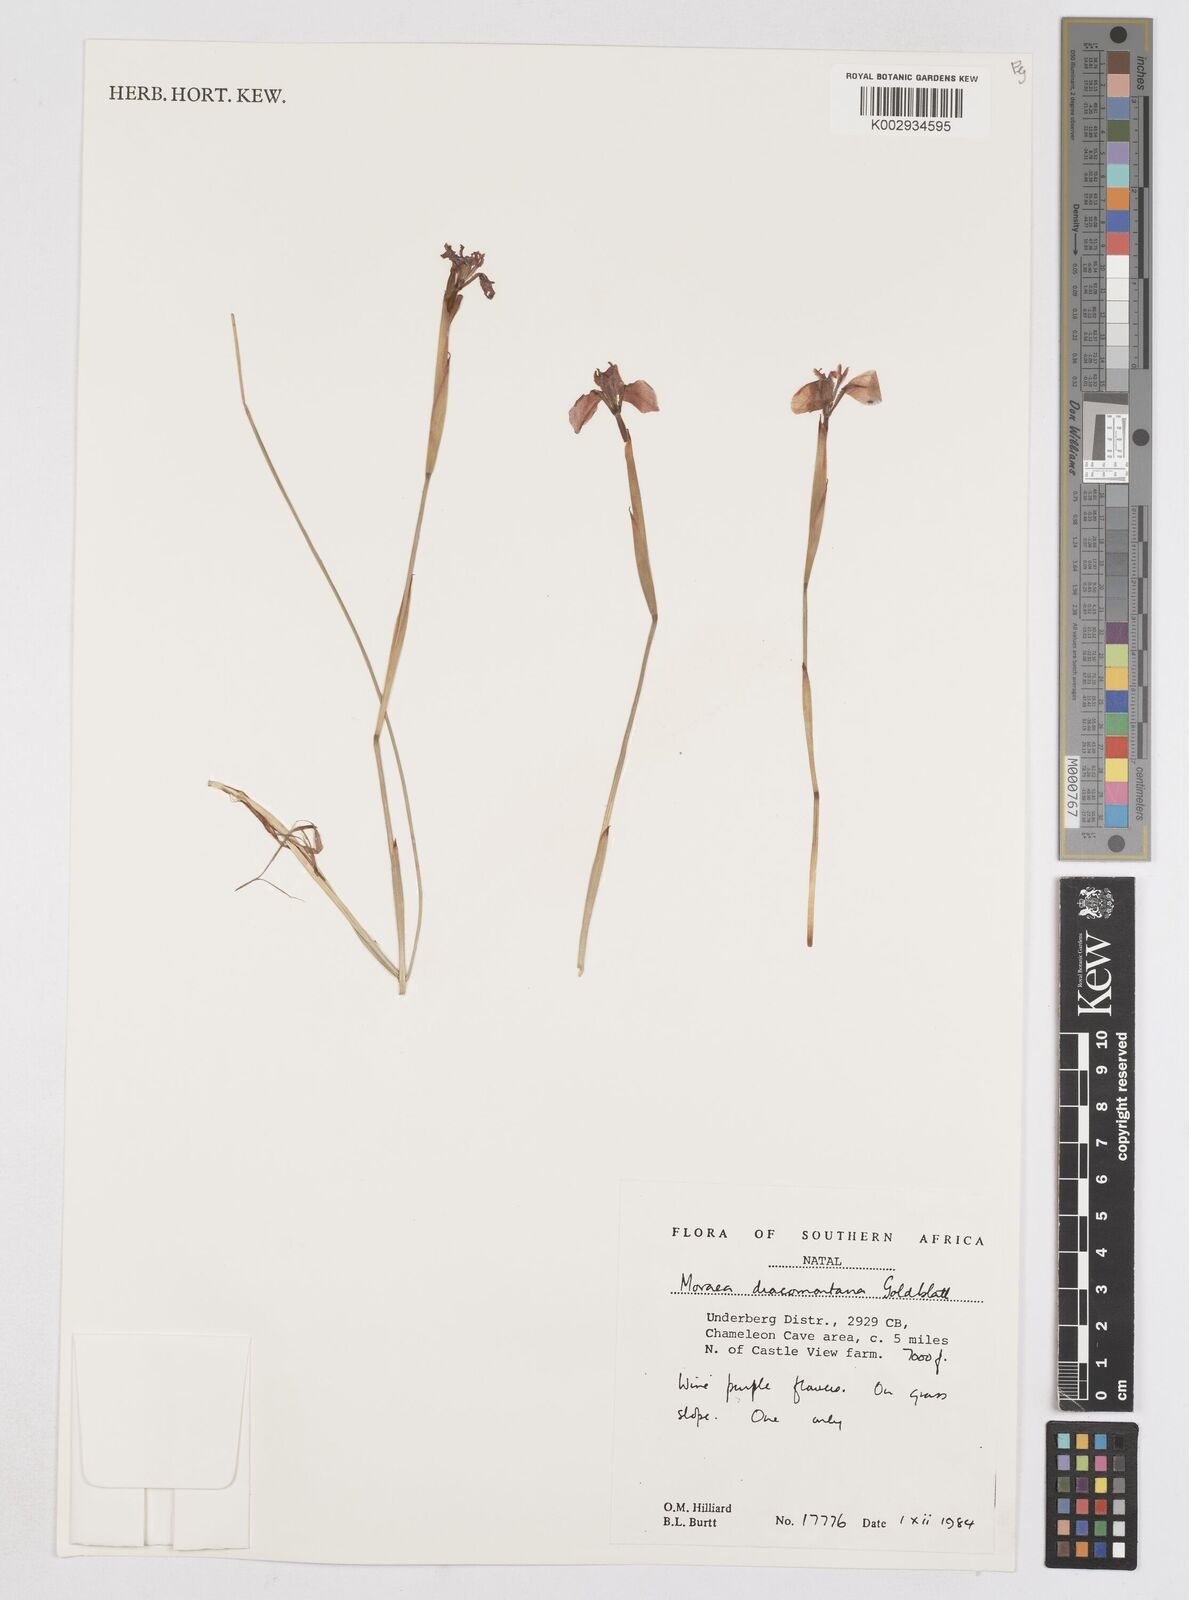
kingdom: Plantae
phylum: Tracheophyta
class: Liliopsida
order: Asparagales
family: Iridaceae
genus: Moraea
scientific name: Moraea dracomontana
